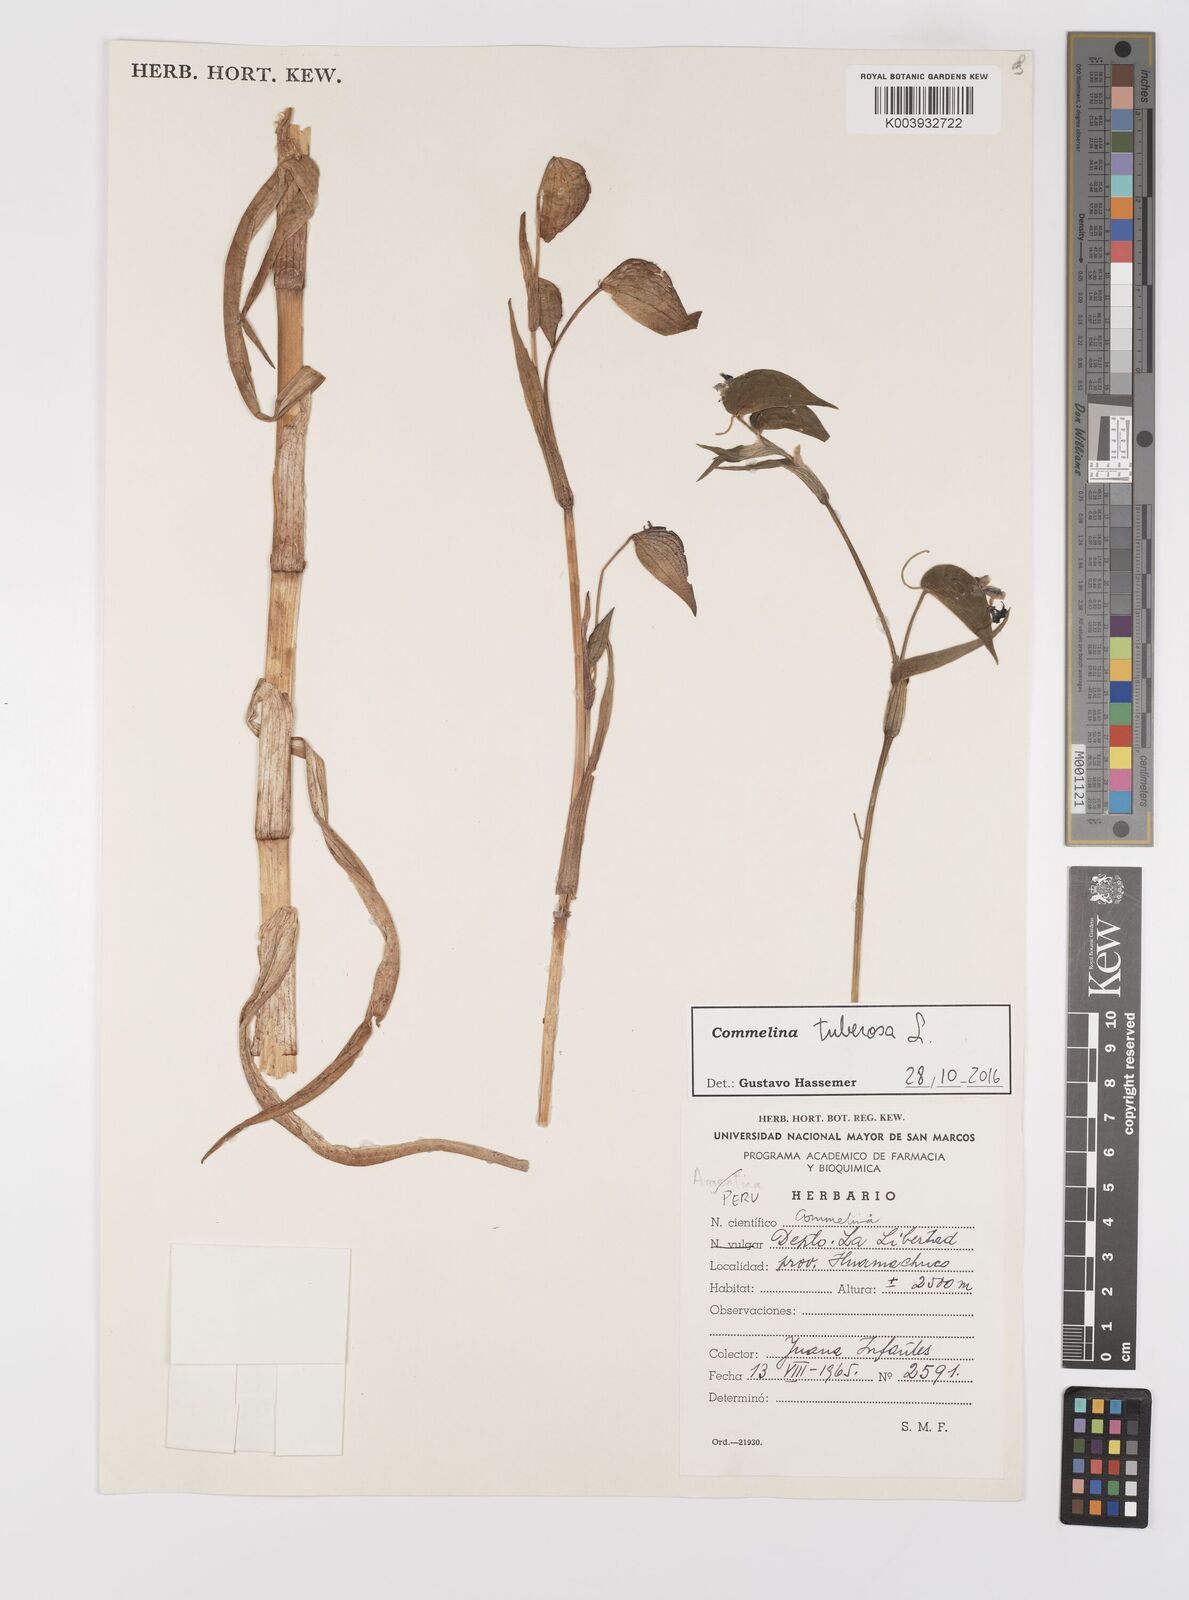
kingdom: Plantae
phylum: Tracheophyta
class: Liliopsida
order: Commelinales
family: Commelinaceae
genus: Commelina
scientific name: Commelina tuberosa
